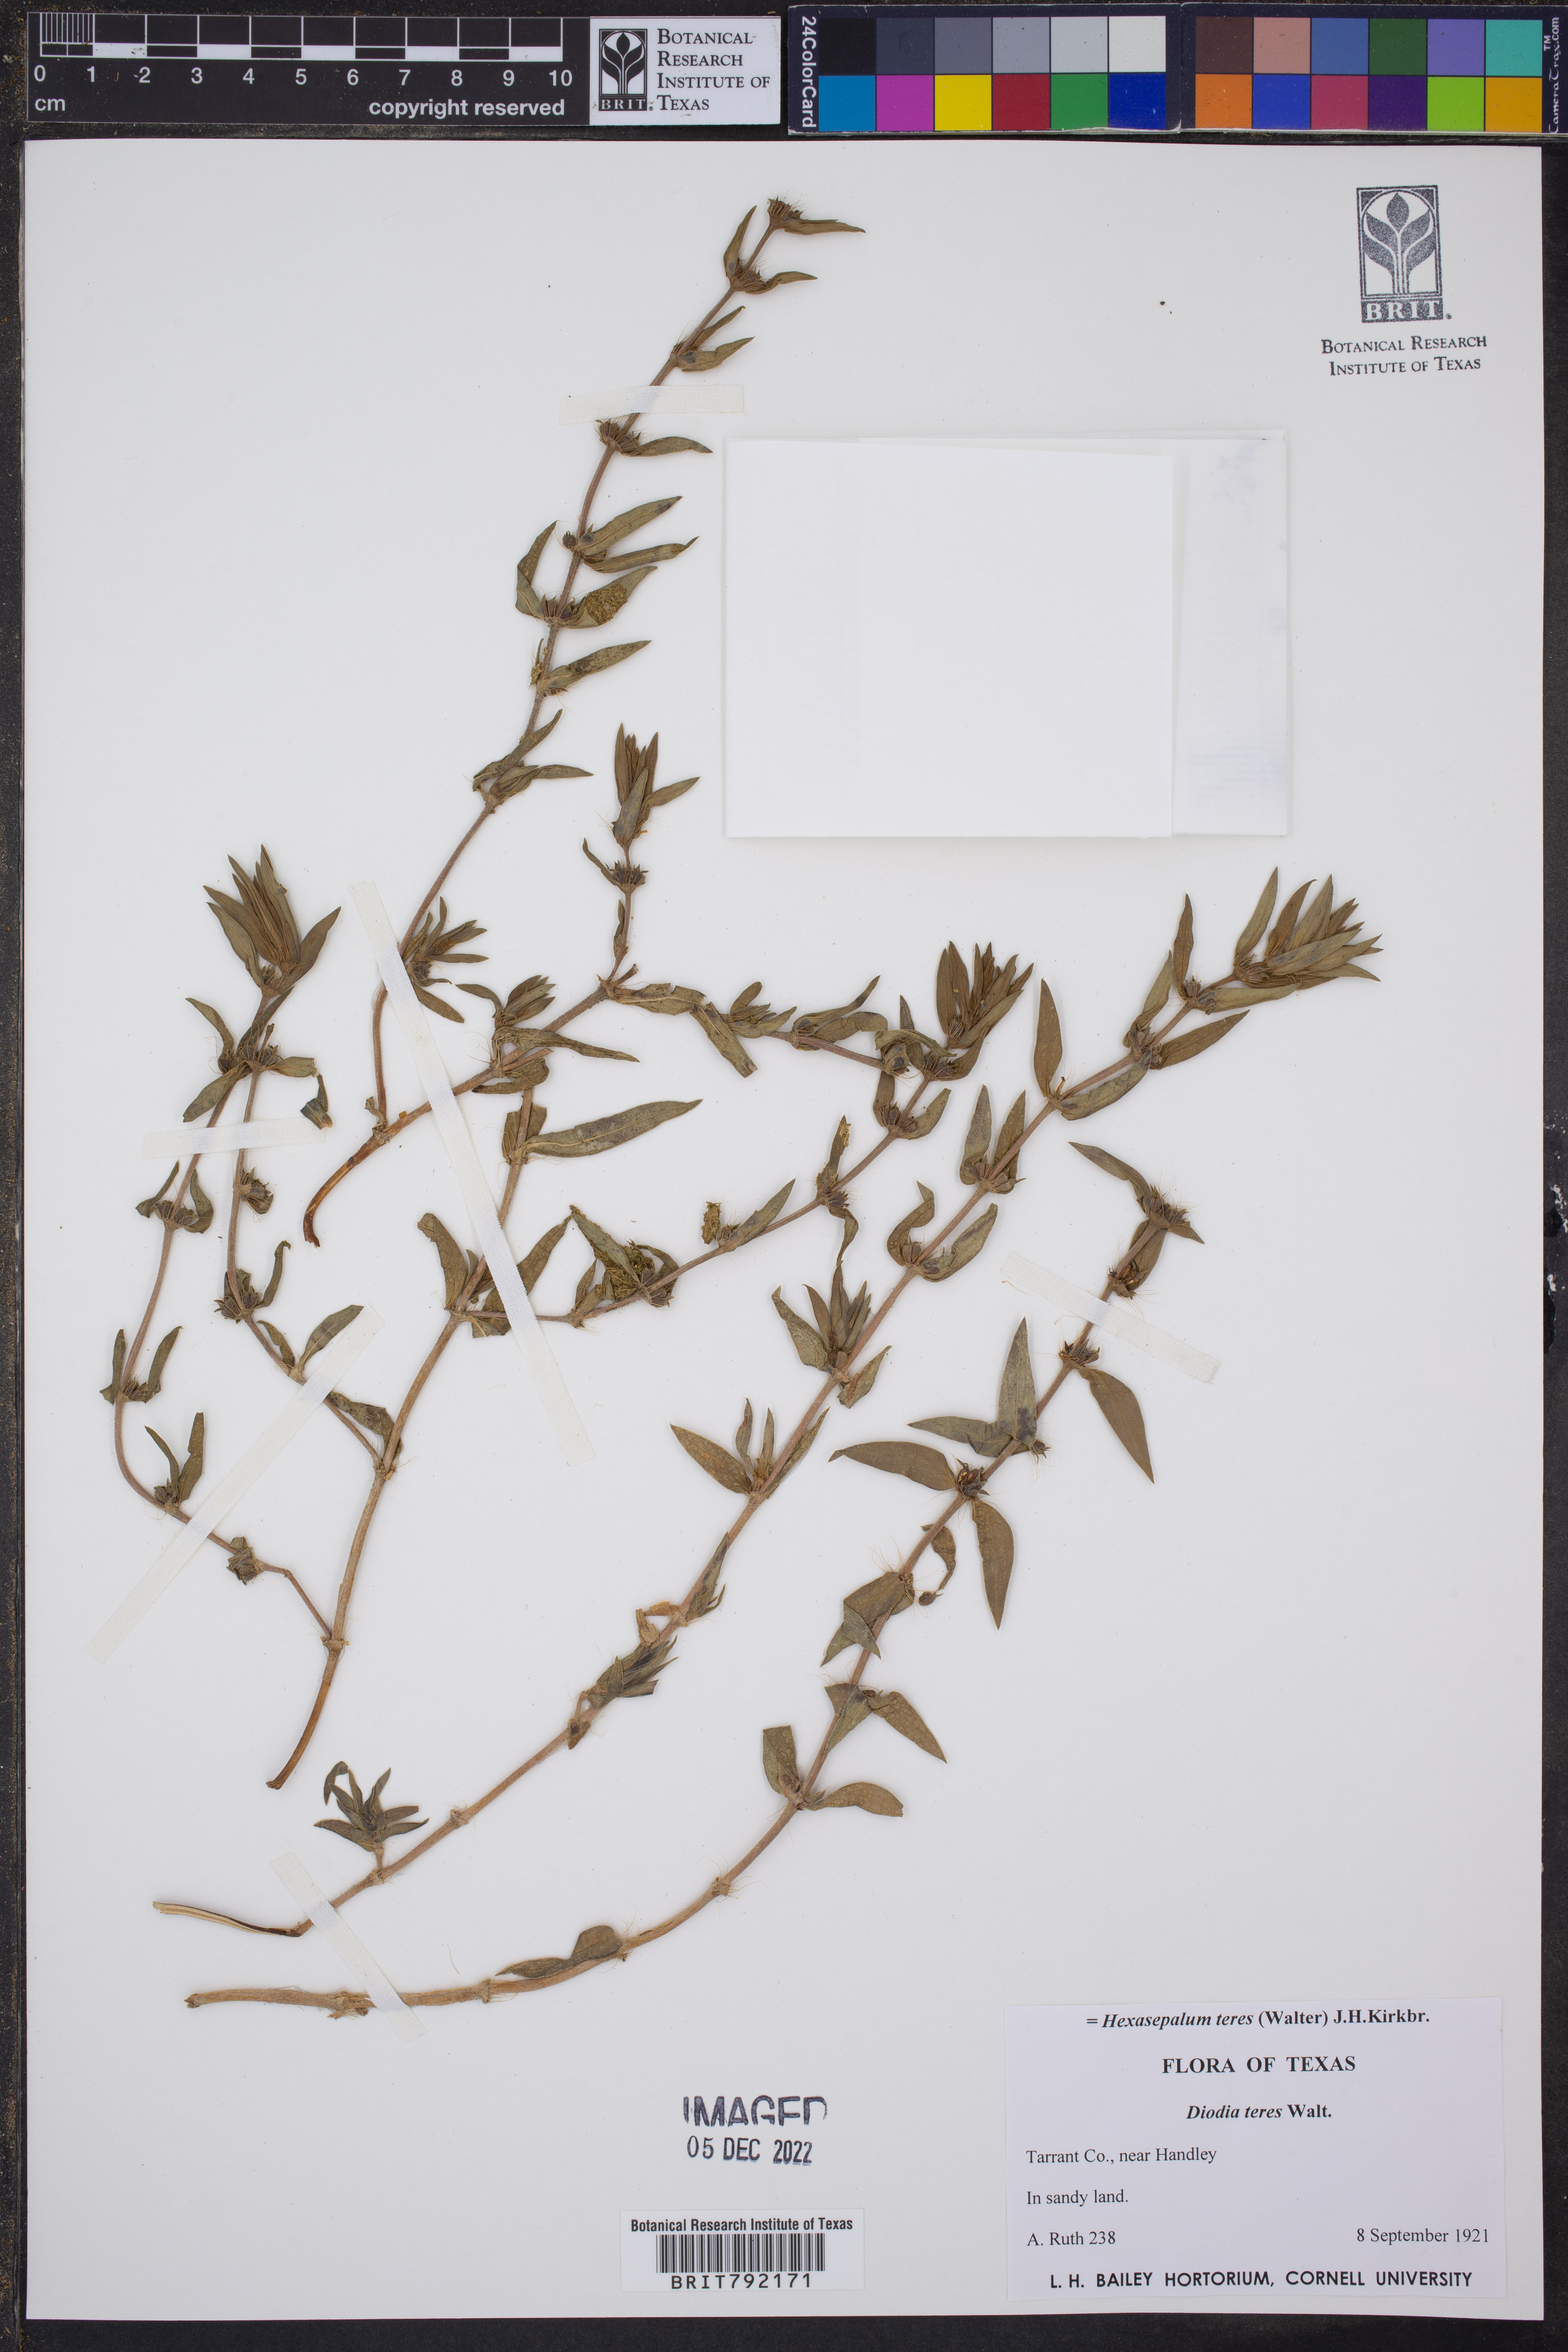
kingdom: Plantae
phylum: Tracheophyta
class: Magnoliopsida
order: Gentianales
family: Rubiaceae
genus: Hexasepalum
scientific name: Hexasepalum teres
